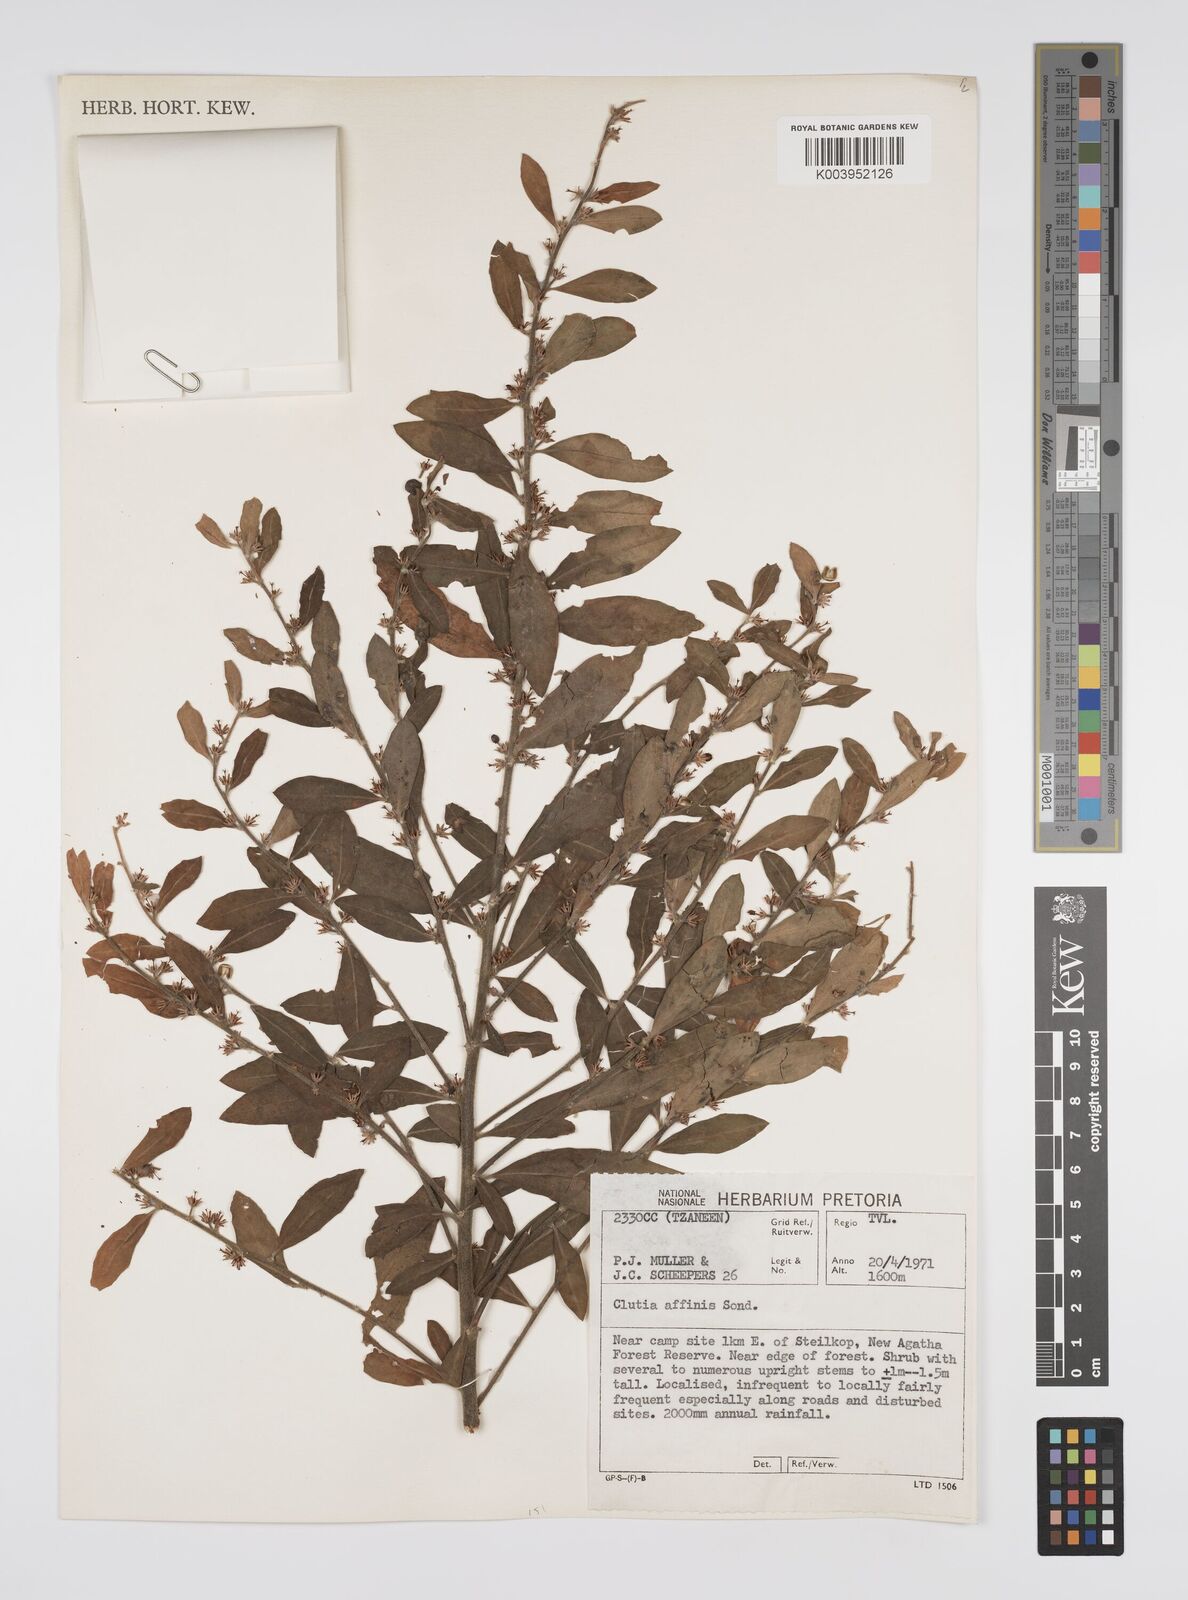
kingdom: Plantae
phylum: Tracheophyta
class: Magnoliopsida
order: Malpighiales
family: Peraceae
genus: Clutia
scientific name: Clutia affinis
